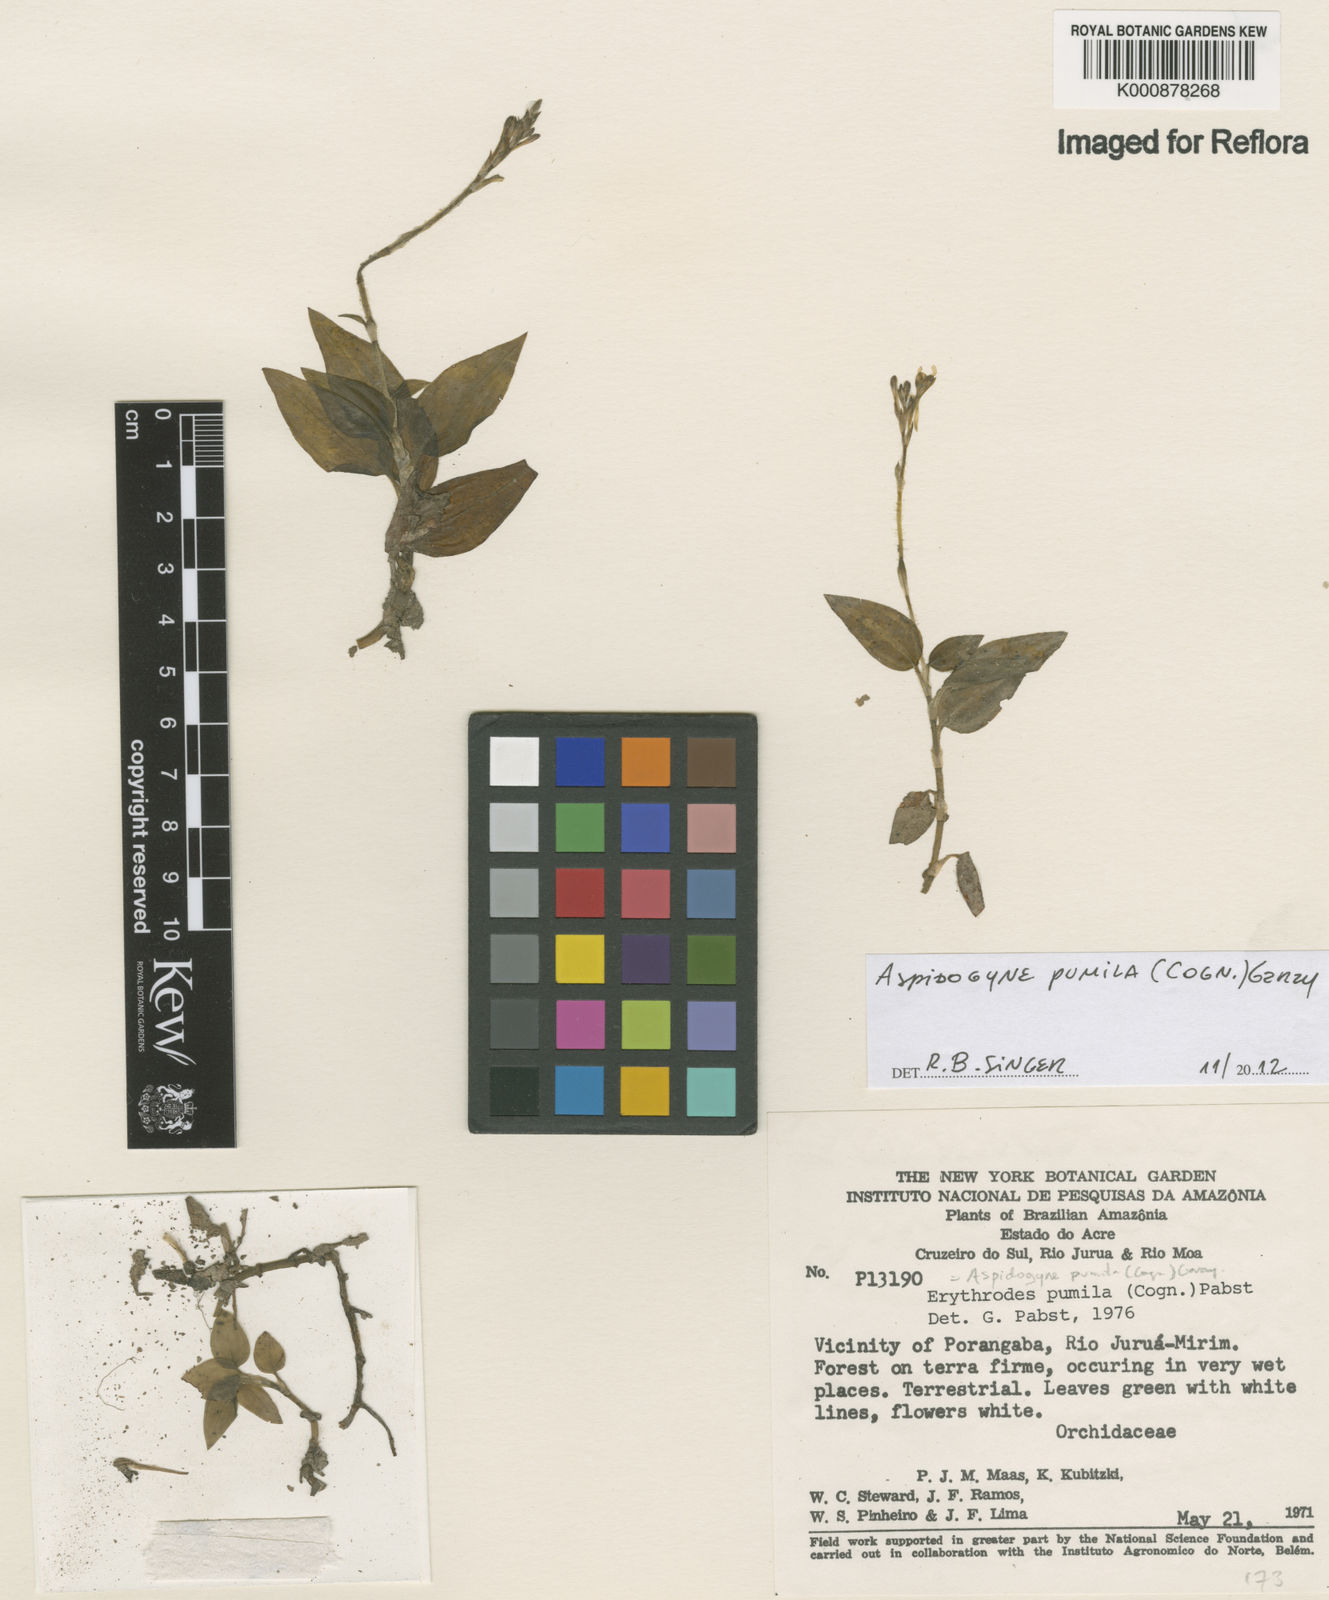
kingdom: Plantae
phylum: Tracheophyta
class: Liliopsida
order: Asparagales
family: Orchidaceae
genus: Aspidogyne
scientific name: Aspidogyne pumila
